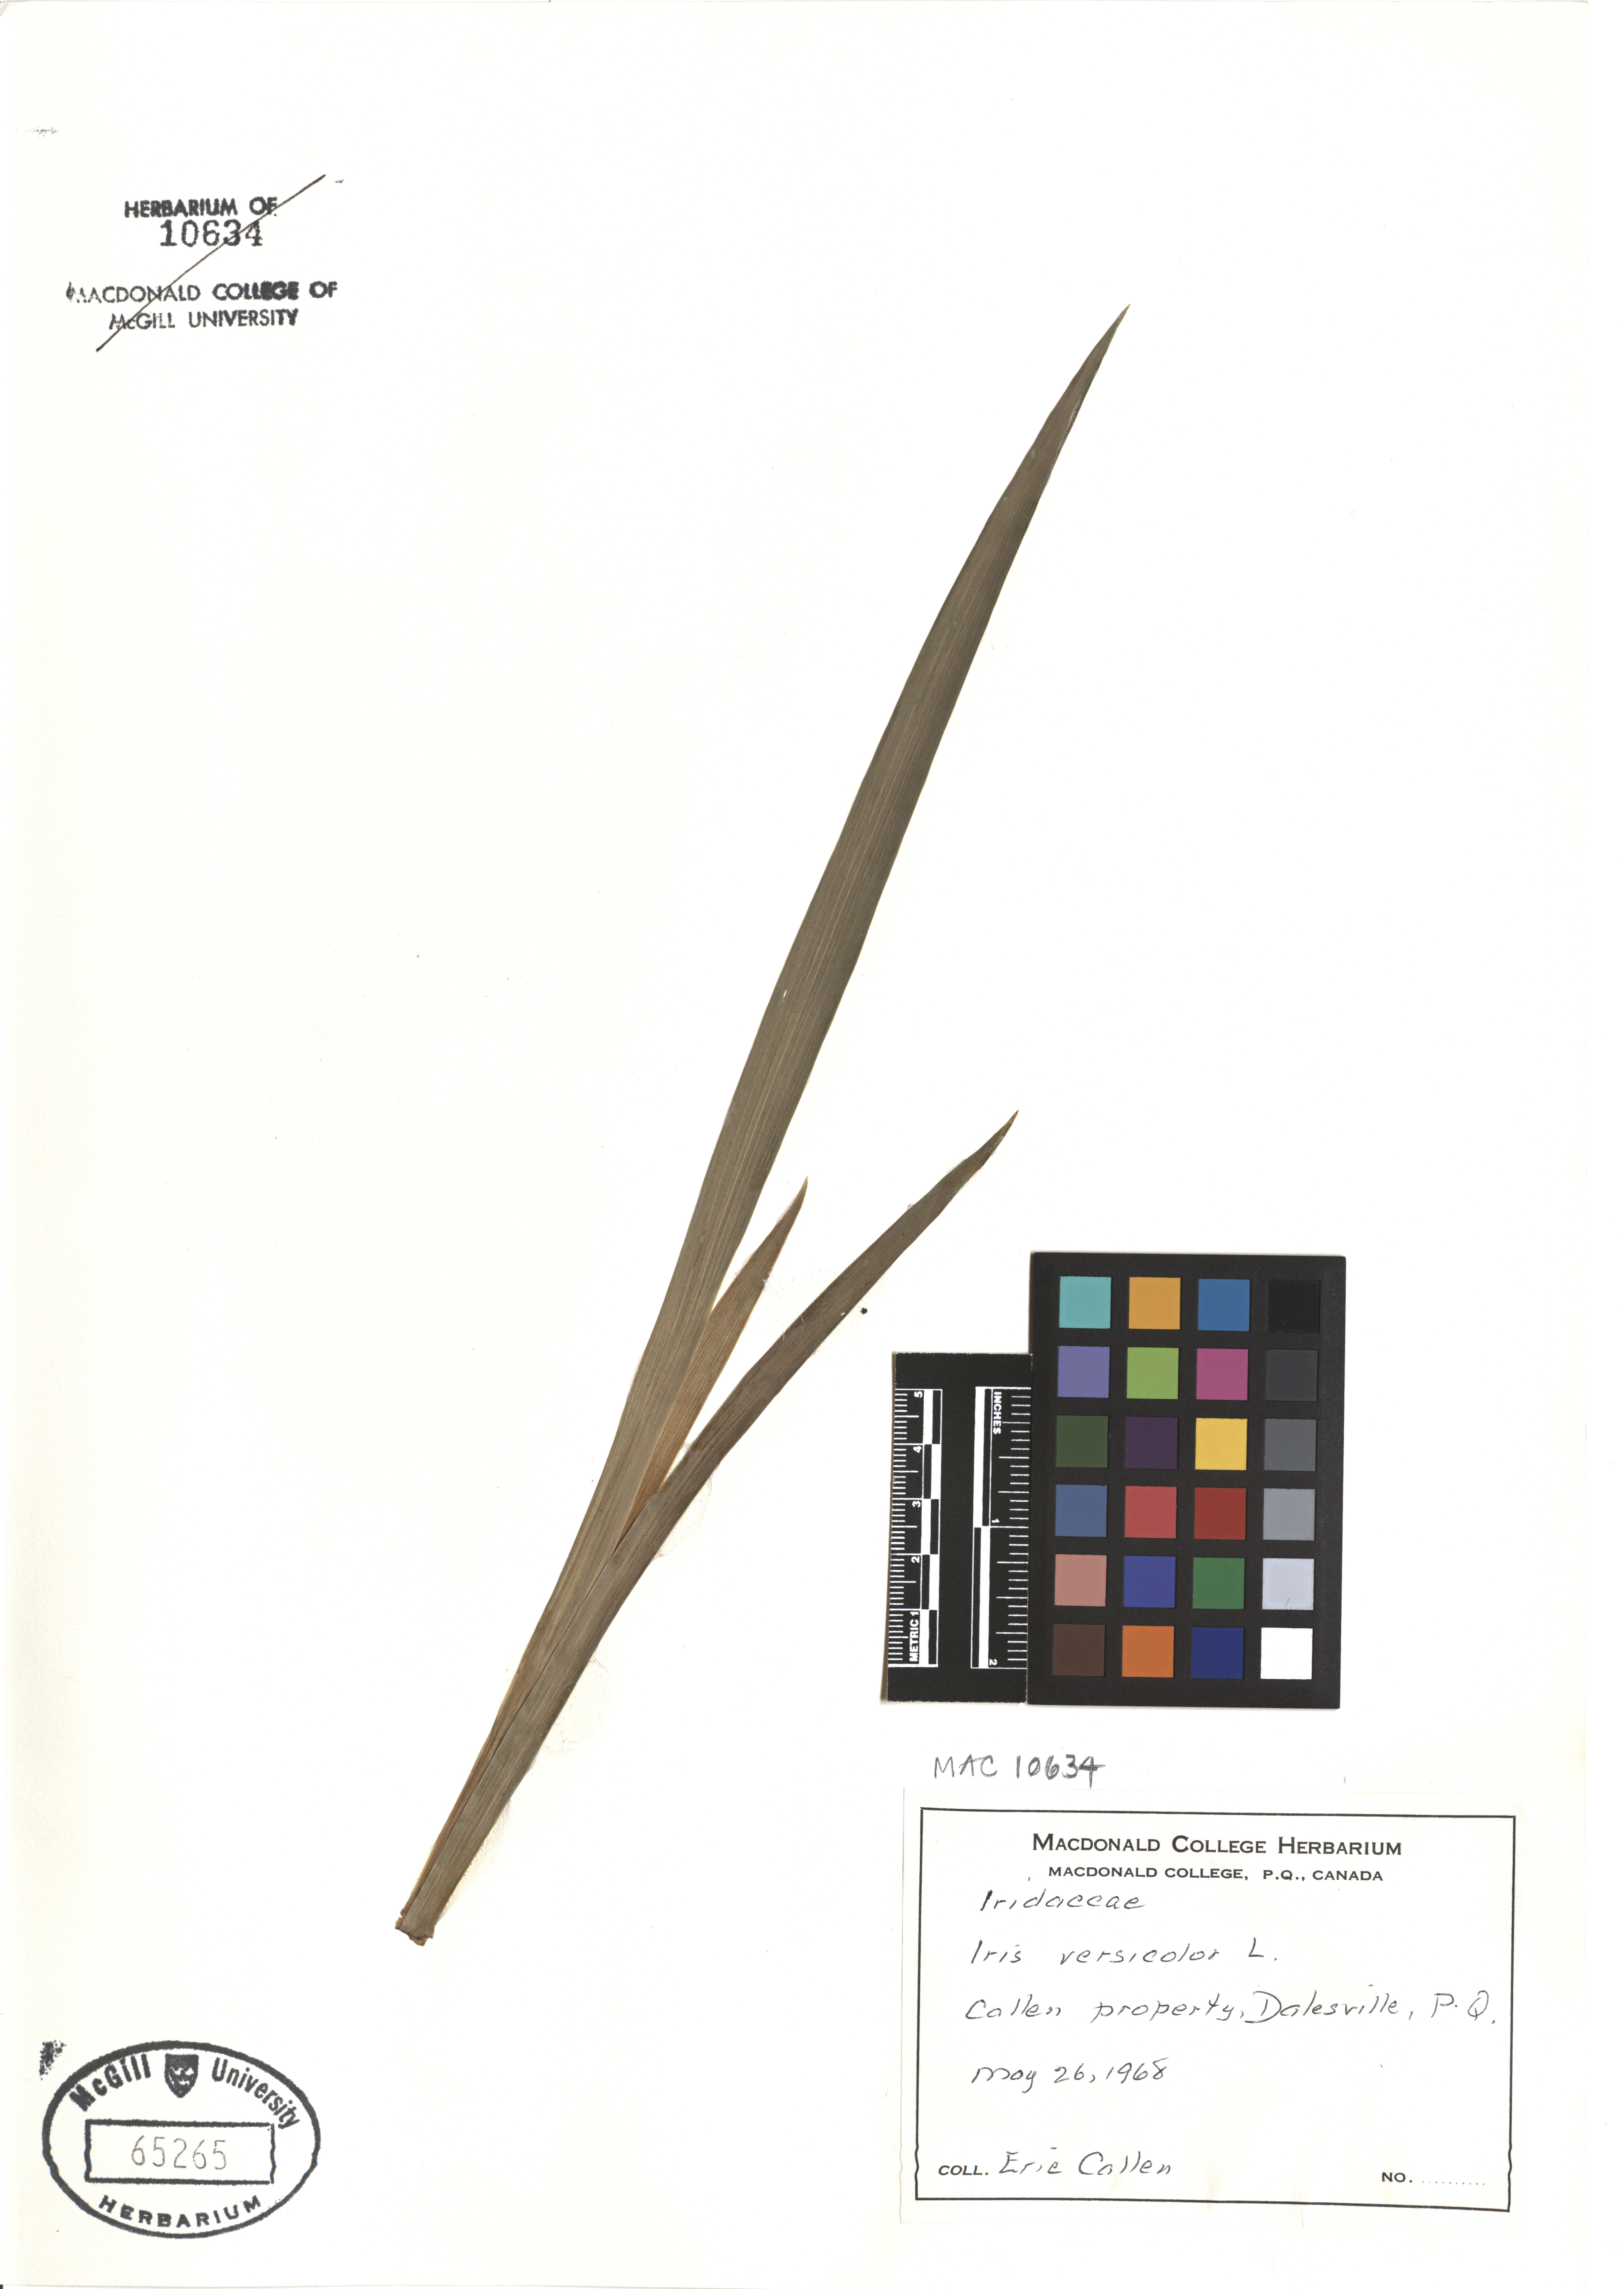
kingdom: Plantae
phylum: Tracheophyta
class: Liliopsida
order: Asparagales
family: Iridaceae
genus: Iris
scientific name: Iris versicolor
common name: Purple iris
